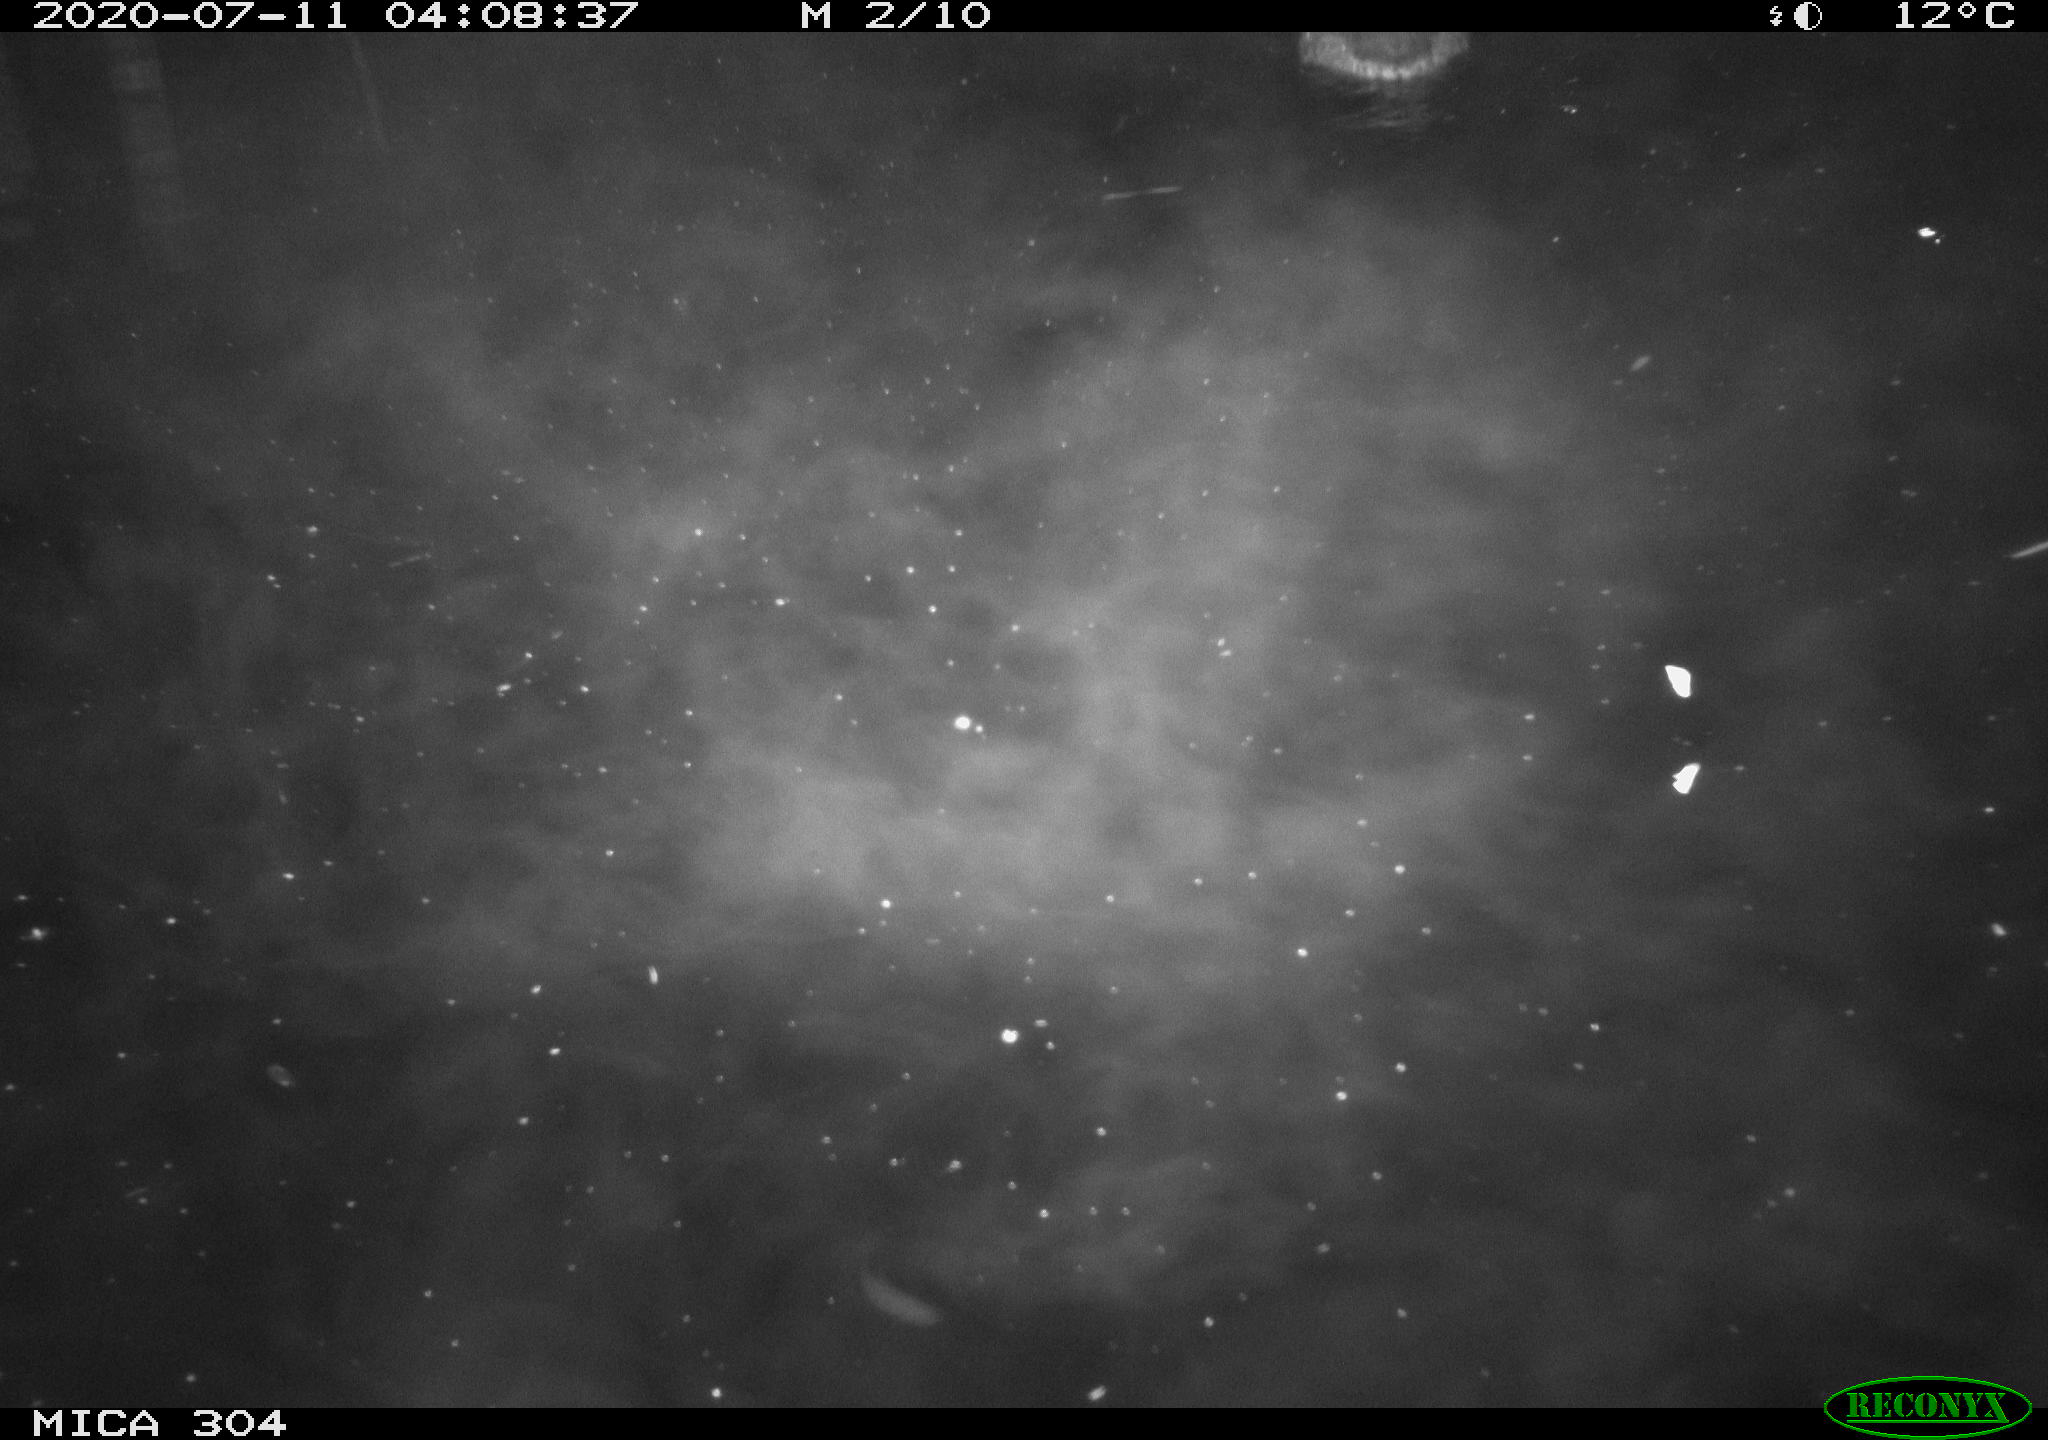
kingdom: Animalia
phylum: Chordata
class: Aves
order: Anseriformes
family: Anatidae
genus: Anas
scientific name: Anas platyrhynchos
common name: Mallard
